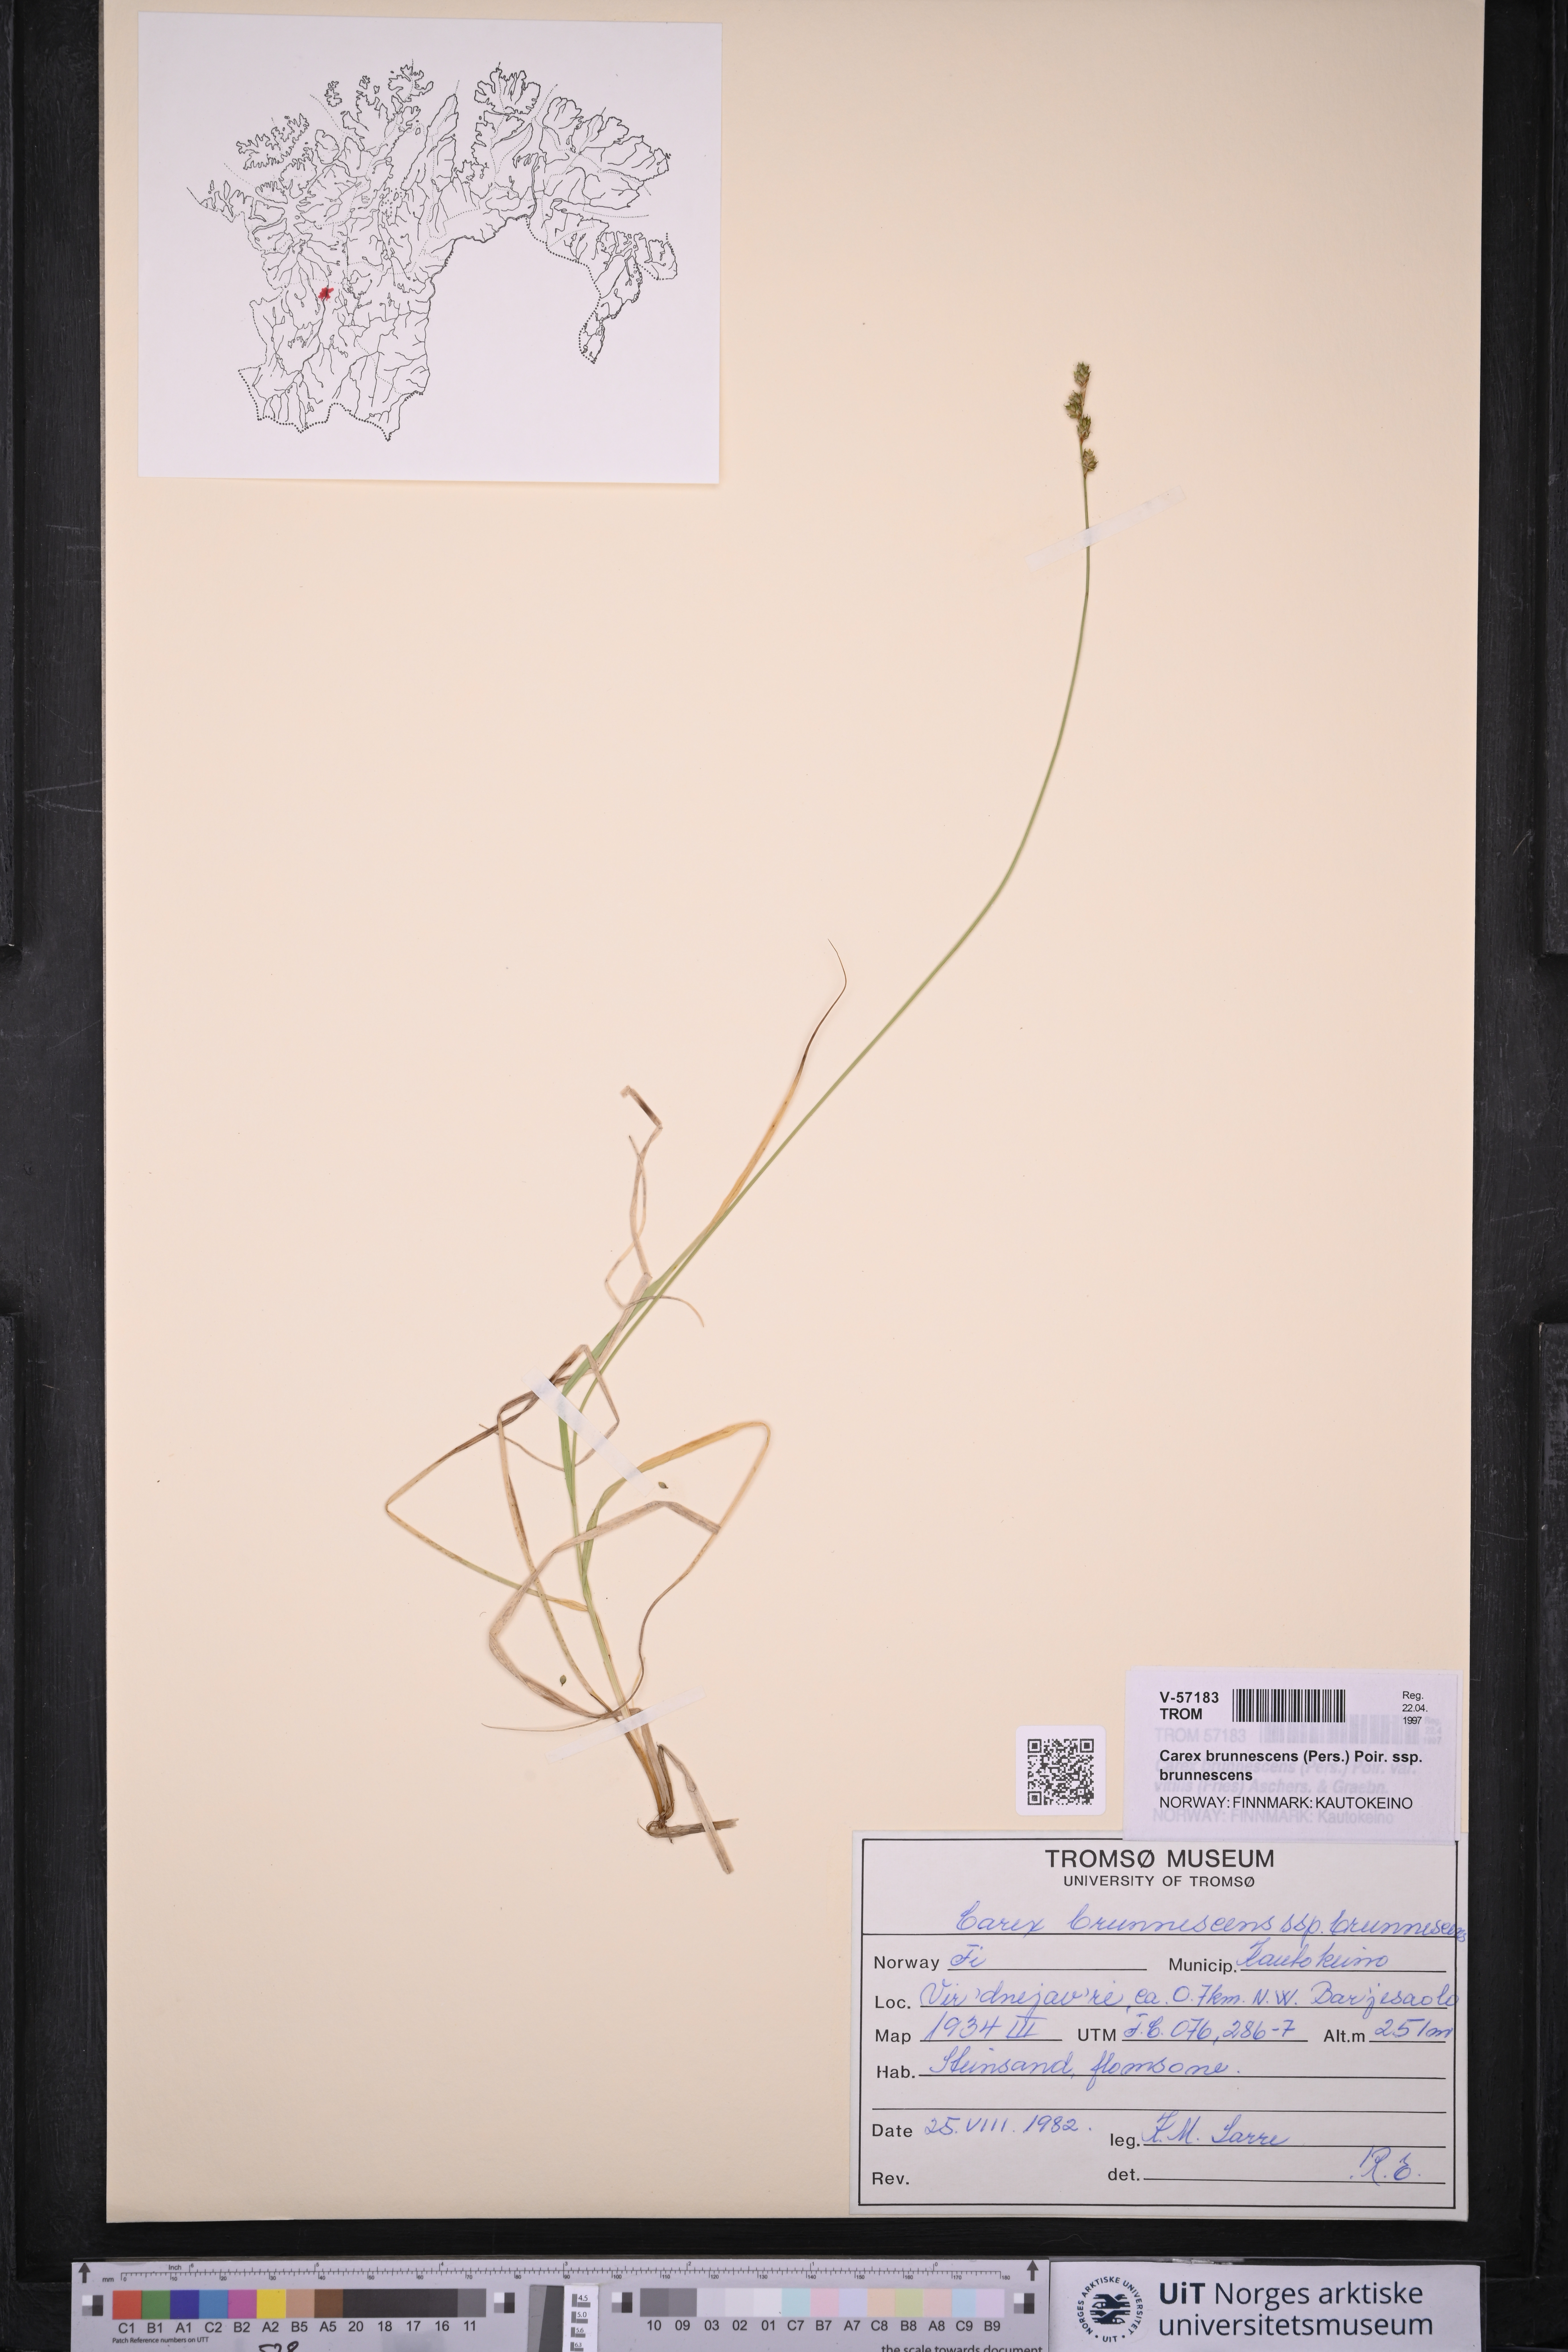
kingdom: Plantae
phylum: Tracheophyta
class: Liliopsida
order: Poales
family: Cyperaceae
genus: Carex
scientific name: Carex brunnescens
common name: Brown sedge
